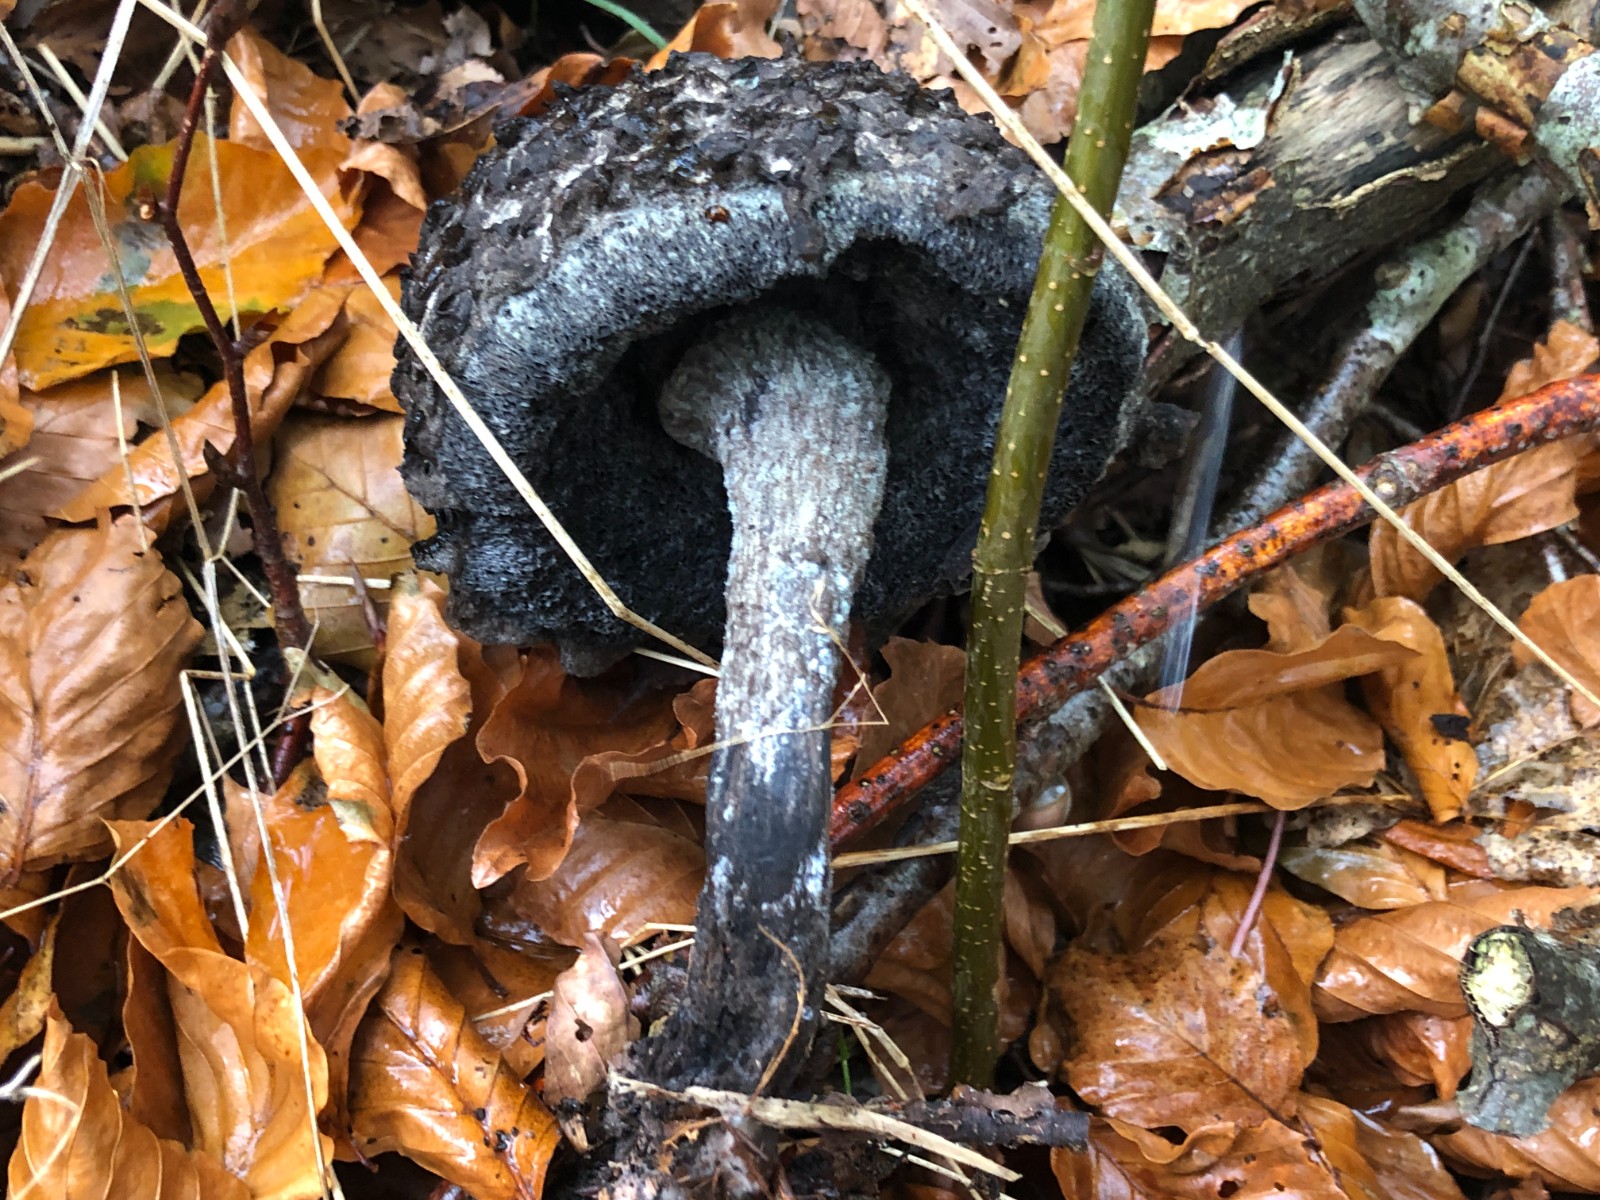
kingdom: Fungi
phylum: Basidiomycota
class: Agaricomycetes
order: Boletales
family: Boletaceae
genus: Strobilomyces
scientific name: Strobilomyces strobilaceus
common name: koglerørhat
